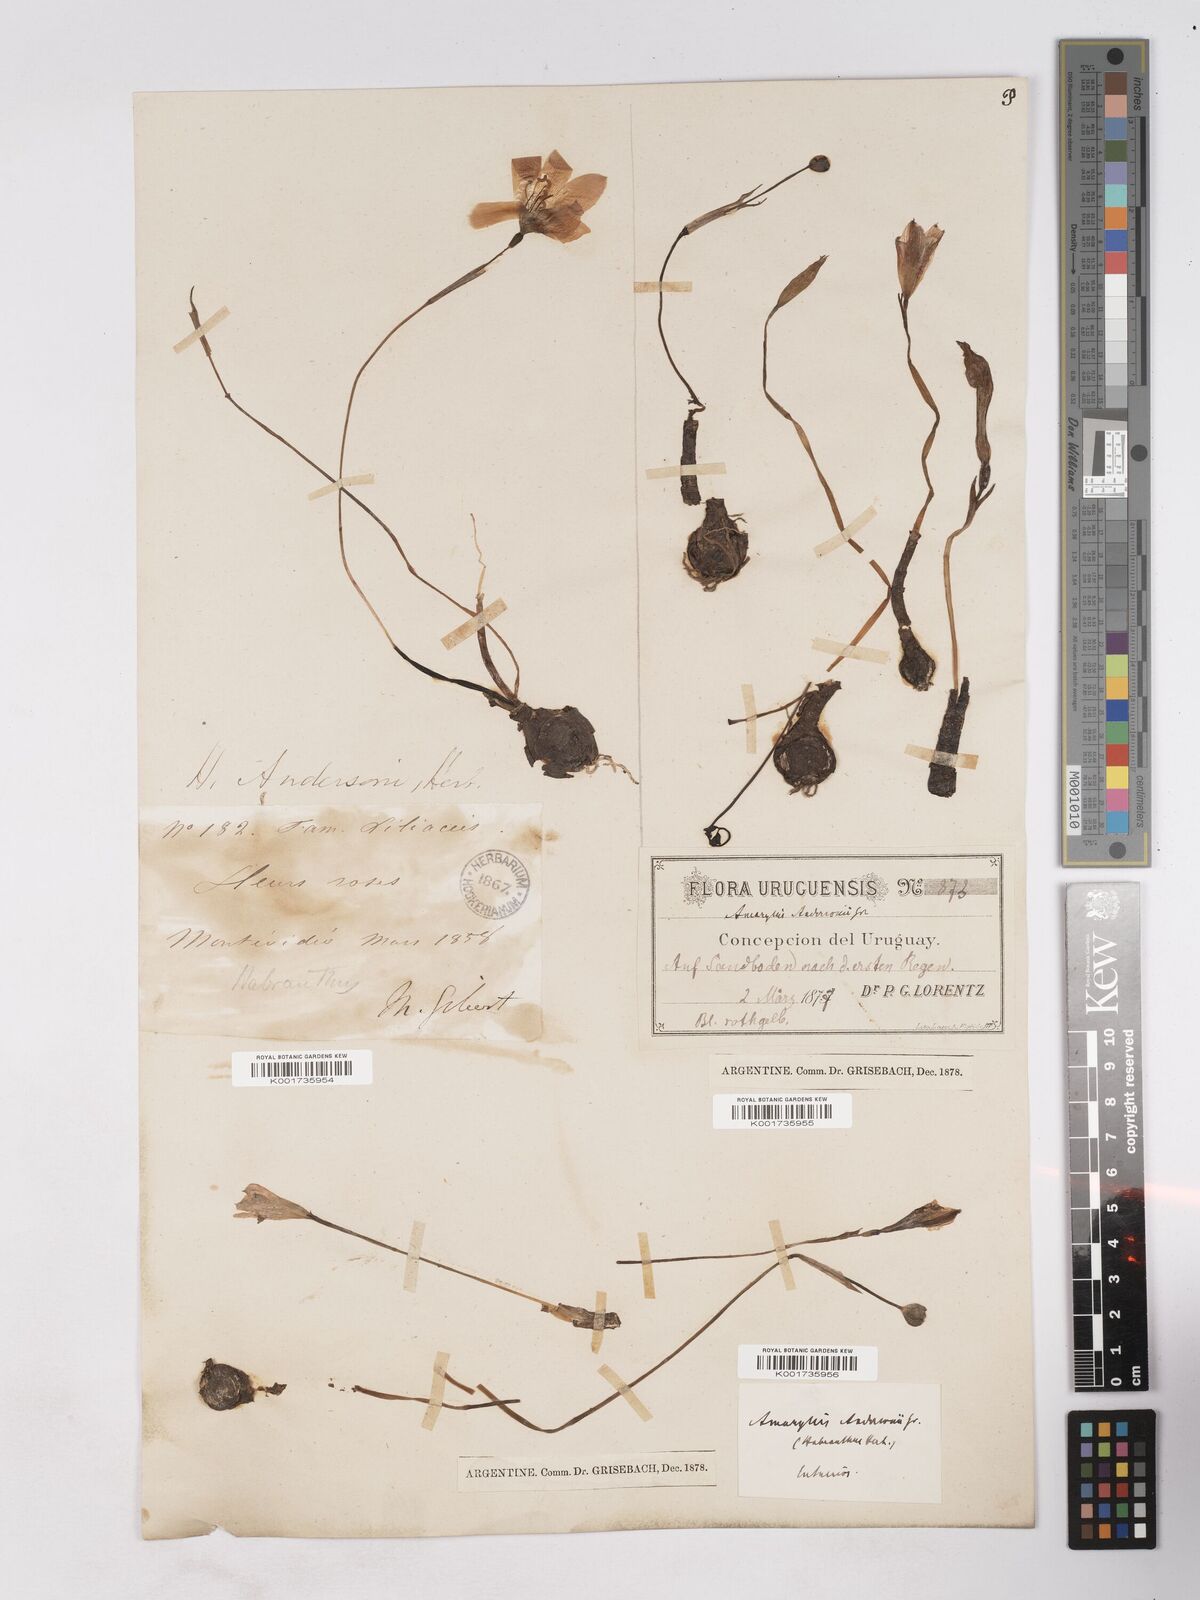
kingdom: Plantae
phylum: Tracheophyta
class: Liliopsida
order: Asparagales
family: Amaryllidaceae
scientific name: Amaryllidaceae
